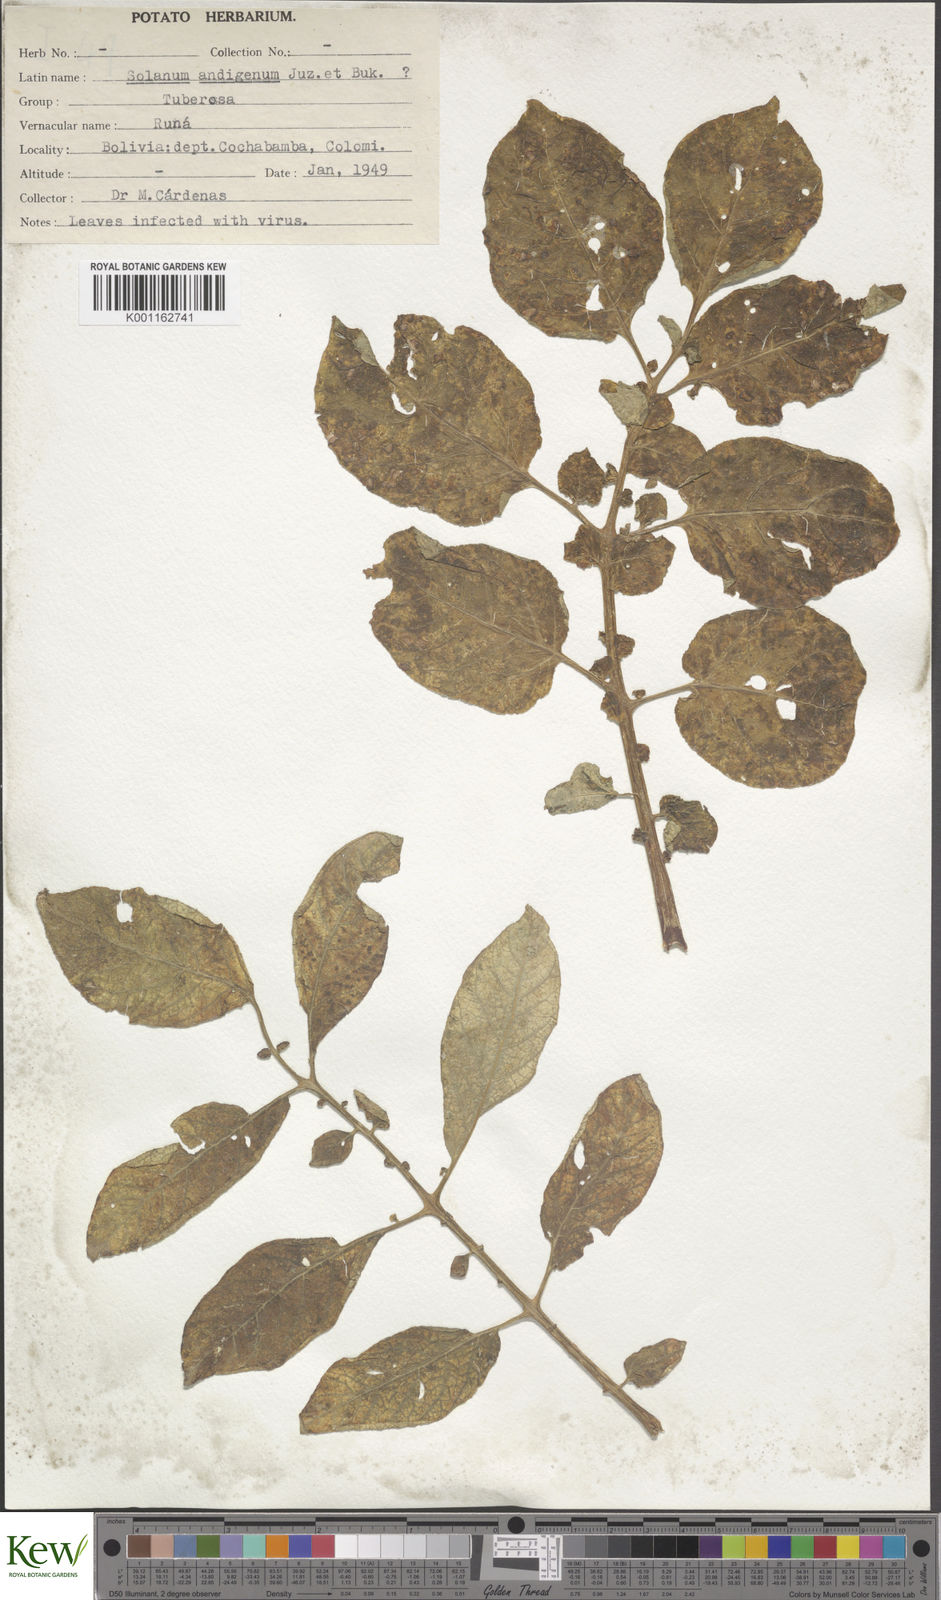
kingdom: Plantae
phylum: Tracheophyta
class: Magnoliopsida
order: Solanales
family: Solanaceae
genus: Solanum
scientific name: Solanum tuberosum
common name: Potato
